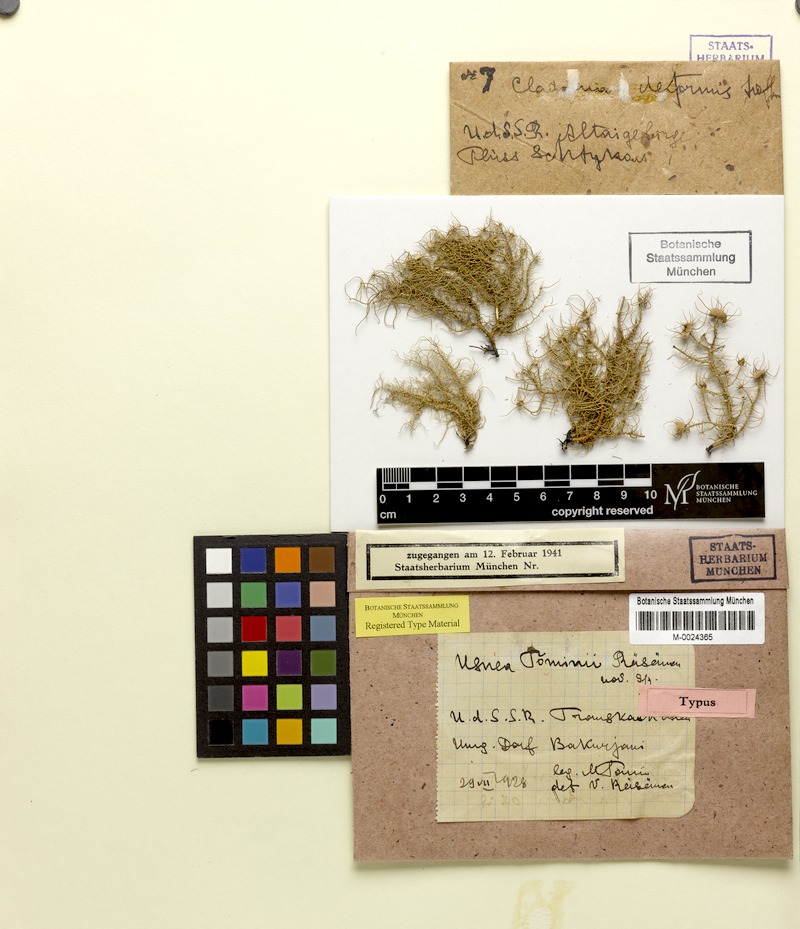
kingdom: Fungi
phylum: Ascomycota
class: Lecanoromycetes
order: Lecanorales
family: Parmeliaceae
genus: Usnea
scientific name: Usnea florida
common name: Witches' whiskers lichen
